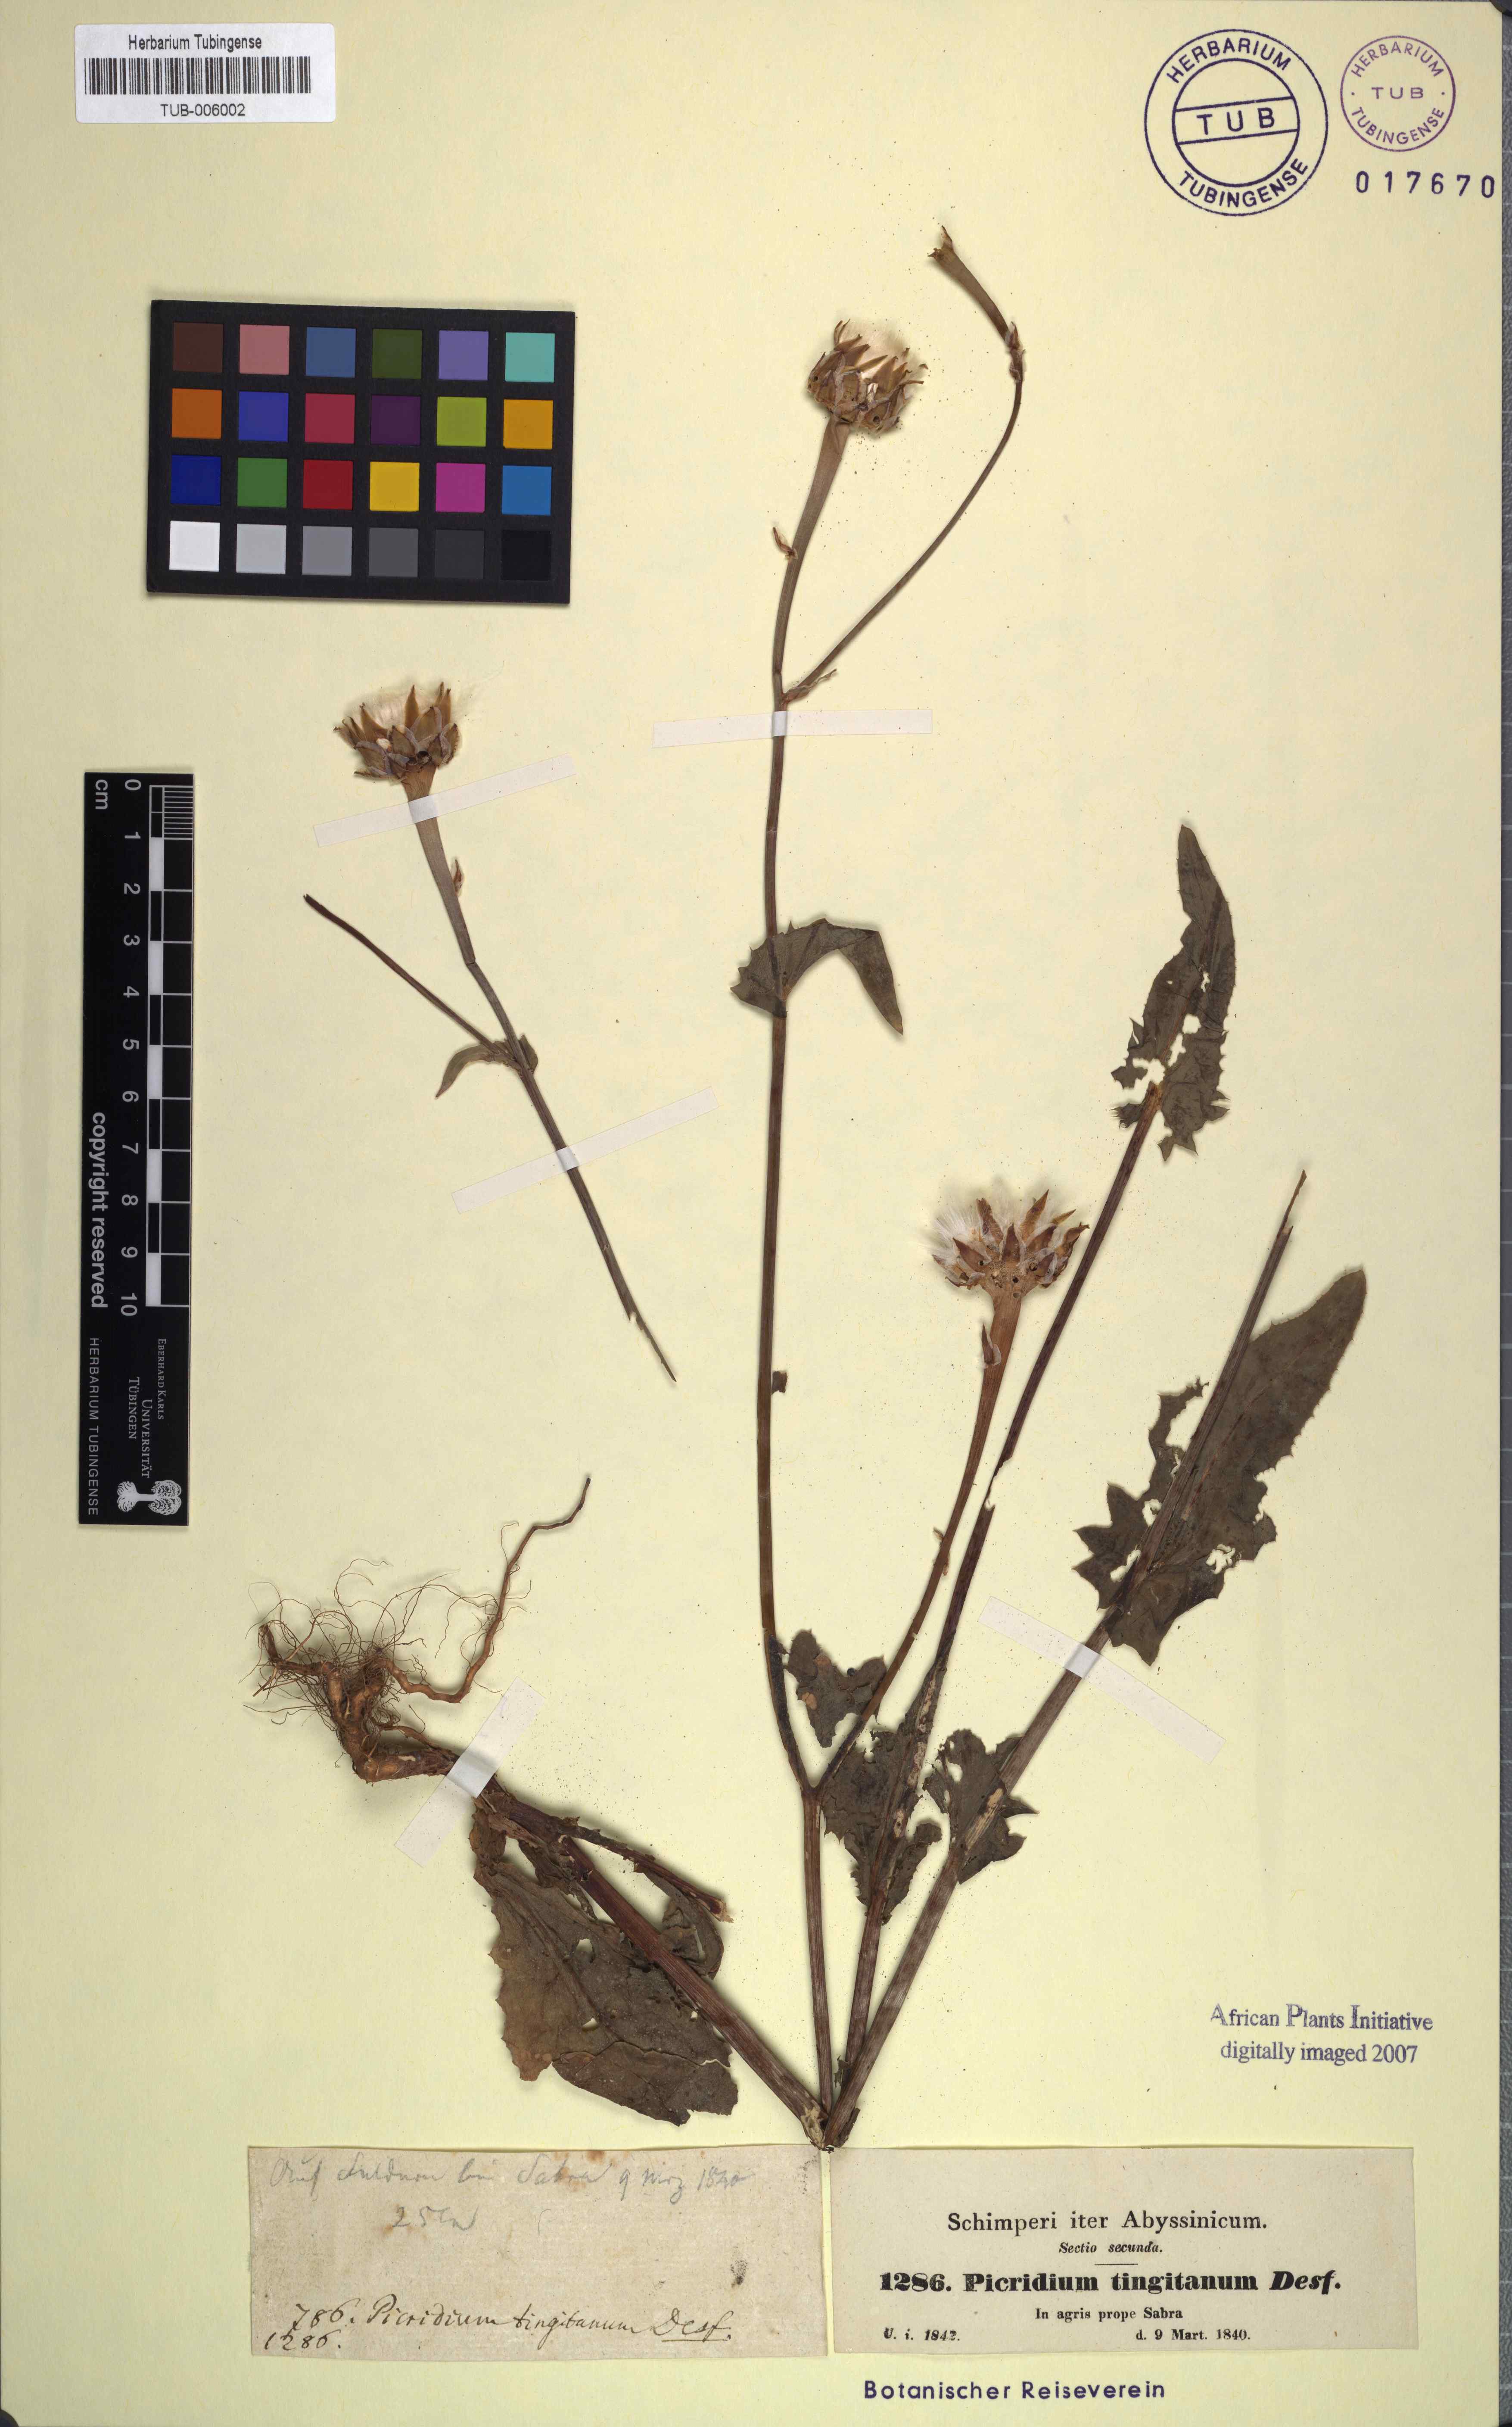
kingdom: Plantae
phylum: Tracheophyta
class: Magnoliopsida
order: Asterales
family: Asteraceae
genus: Reichardia
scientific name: Reichardia tingitana
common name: Reichardia
